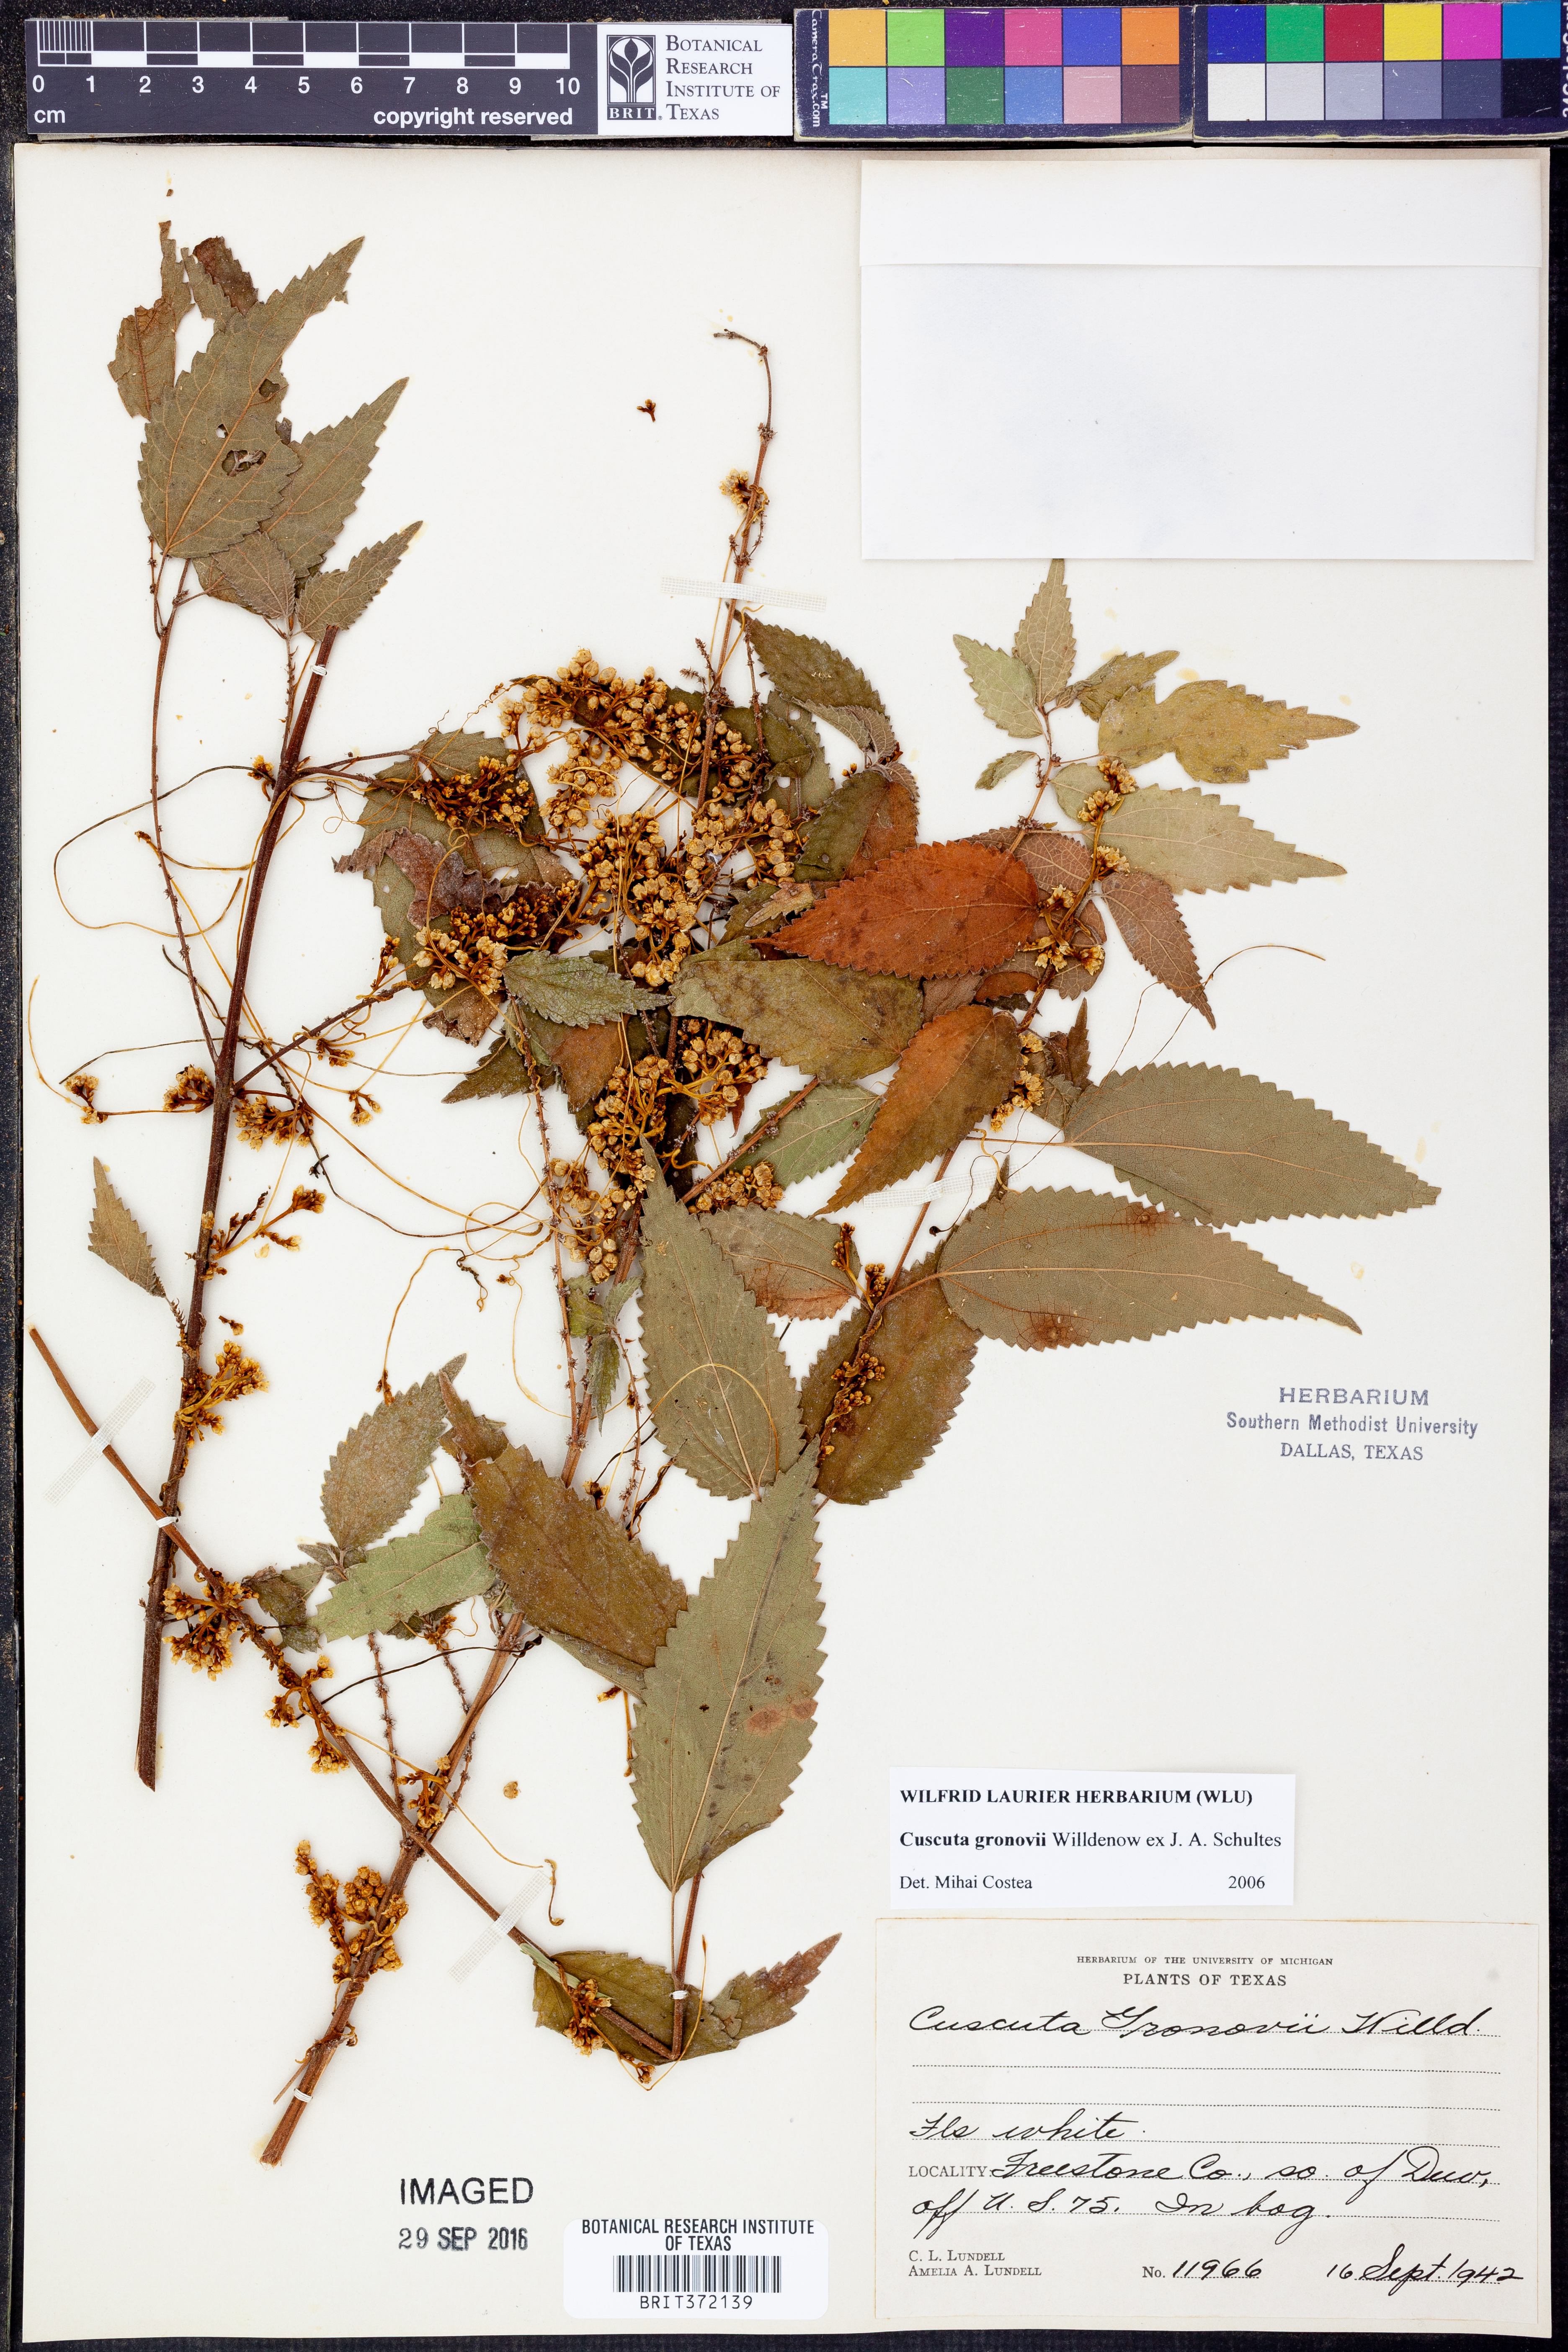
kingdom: Plantae
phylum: Tracheophyta
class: Magnoliopsida
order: Solanales
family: Convolvulaceae
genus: Cuscuta
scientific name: Cuscuta gronovii
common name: Common dodder
